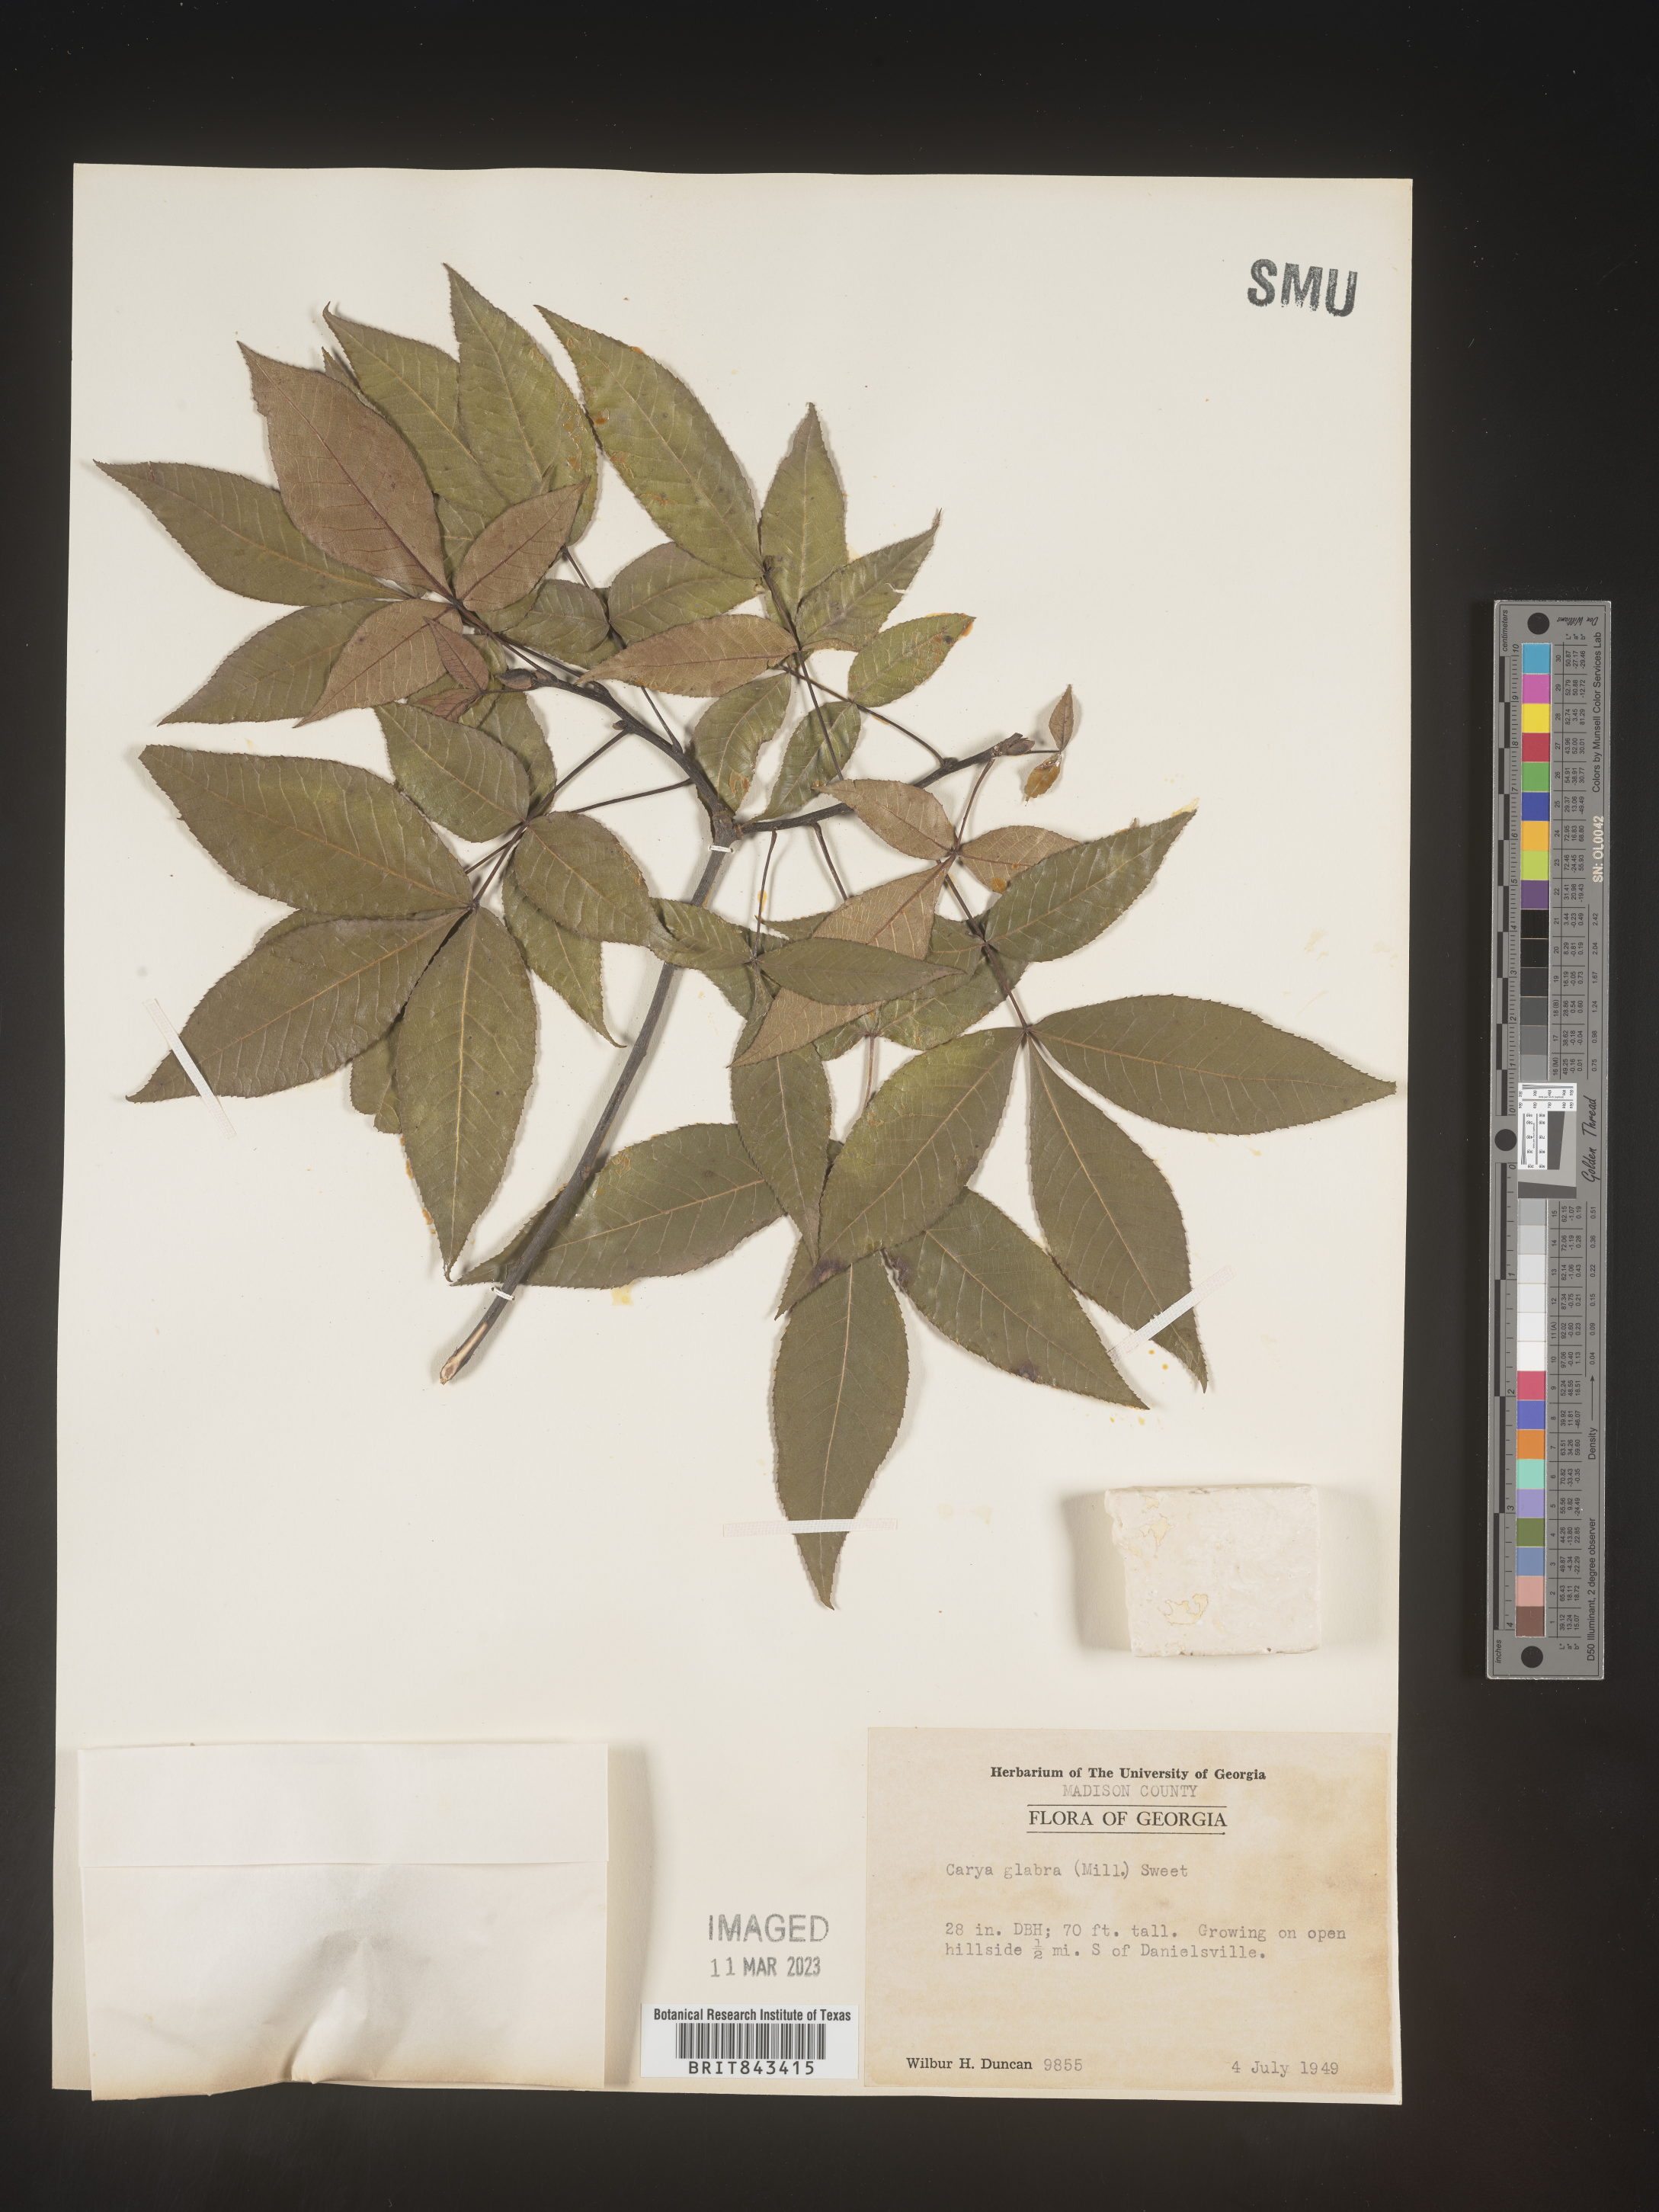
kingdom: Plantae
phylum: Tracheophyta
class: Magnoliopsida
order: Fagales
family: Juglandaceae
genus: Carya
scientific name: Carya glabra
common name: Pignut hickory
